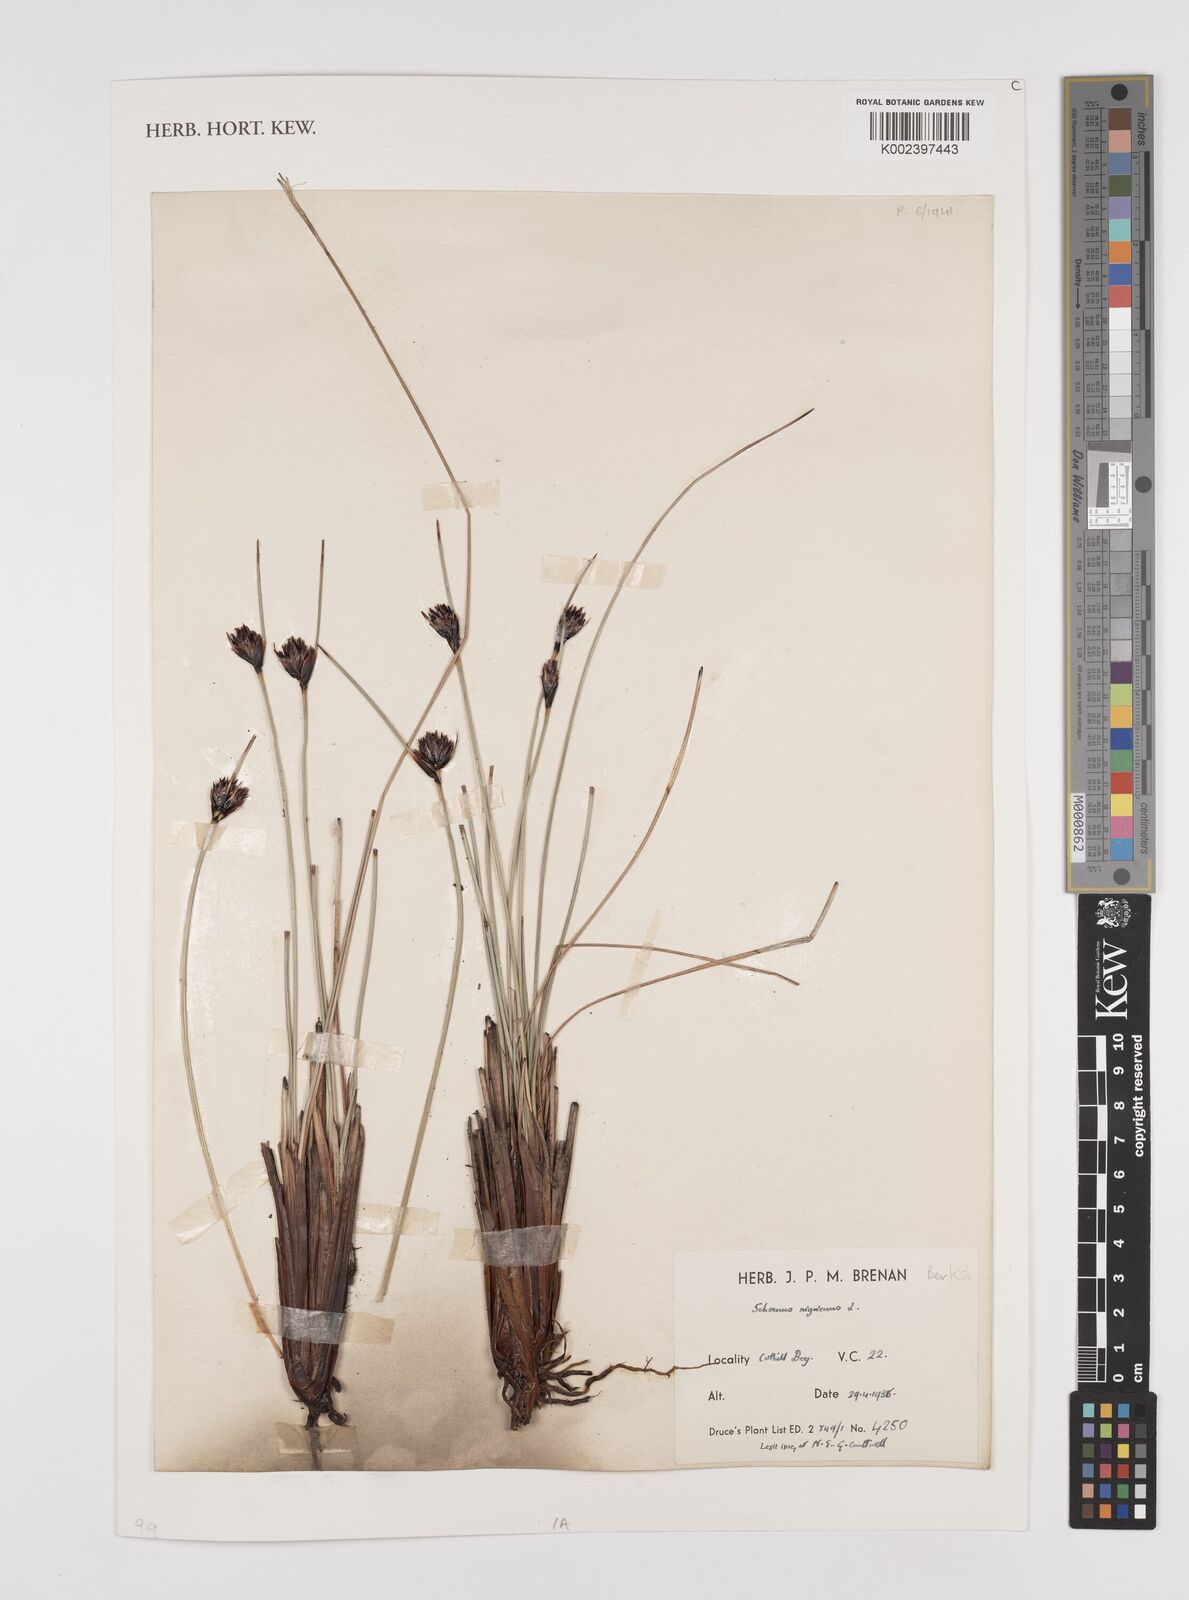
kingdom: Plantae
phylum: Tracheophyta
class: Liliopsida
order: Poales
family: Cyperaceae
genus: Schoenus
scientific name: Schoenus nigricans
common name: Black bog-rush
